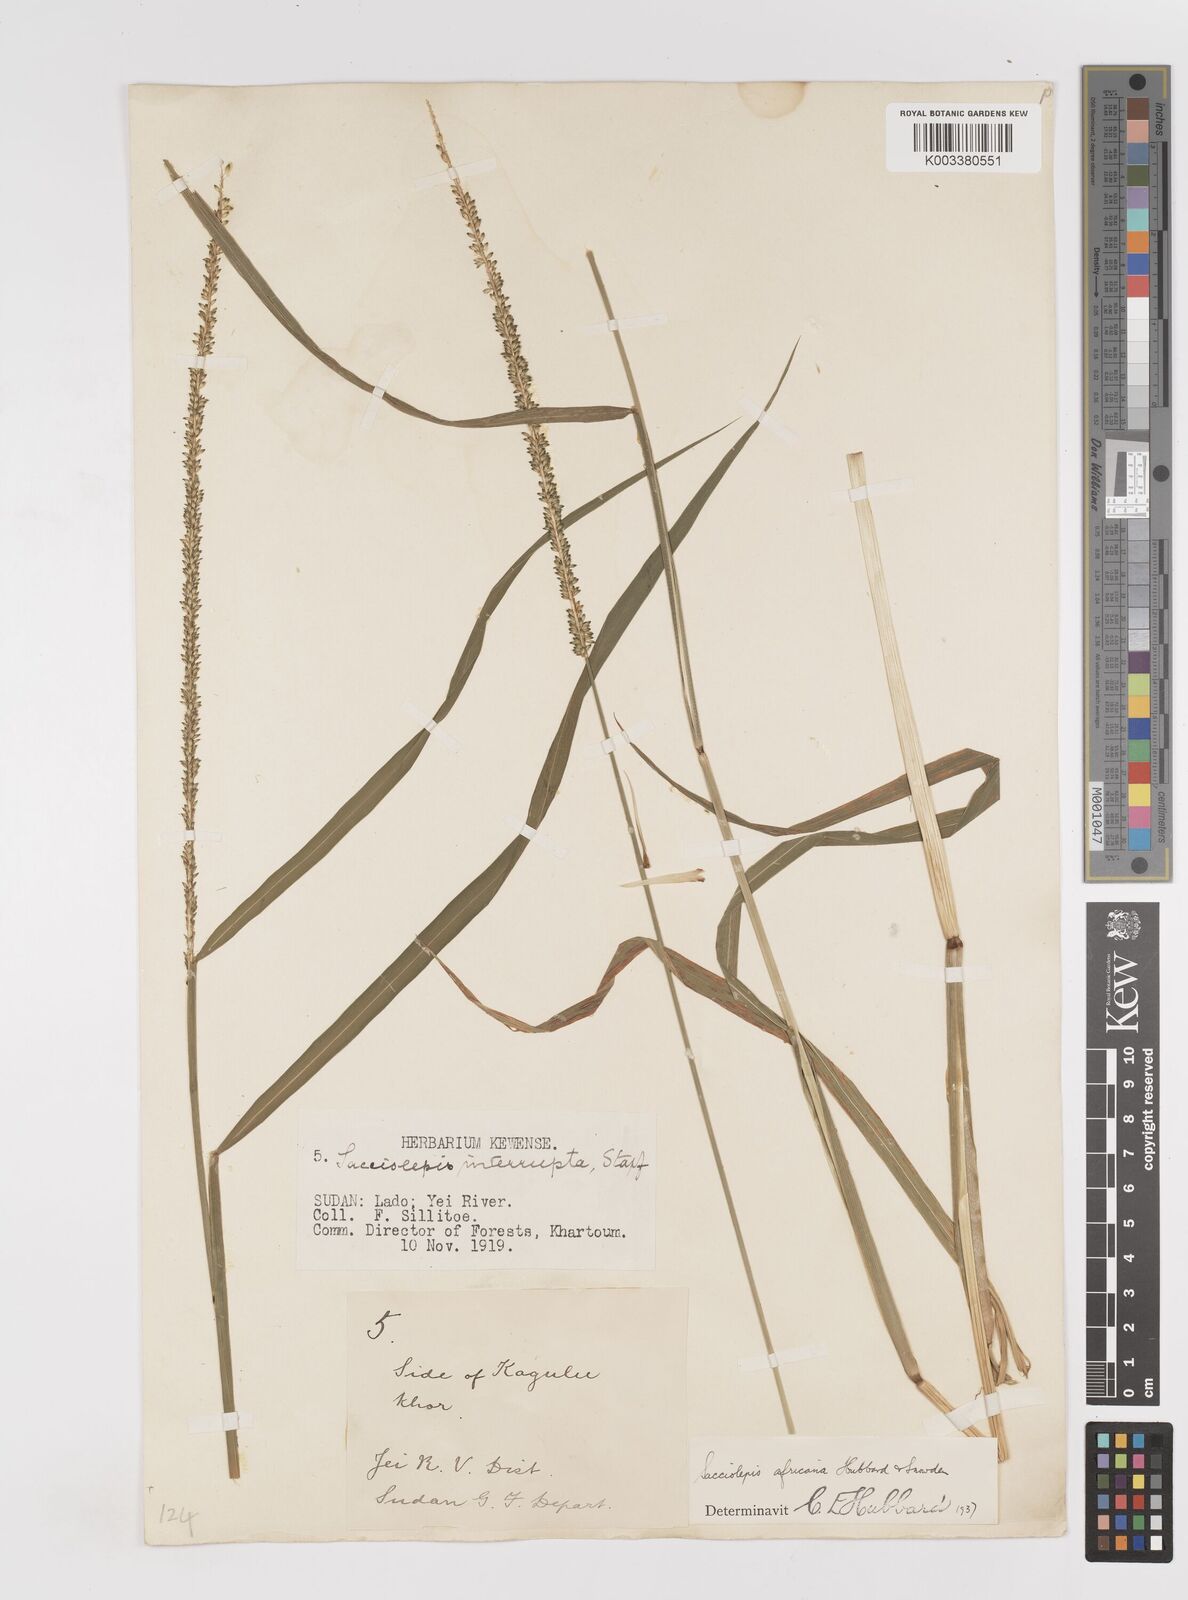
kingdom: Plantae
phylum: Tracheophyta
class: Liliopsida
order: Poales
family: Poaceae
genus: Sacciolepis
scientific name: Sacciolepis africana
